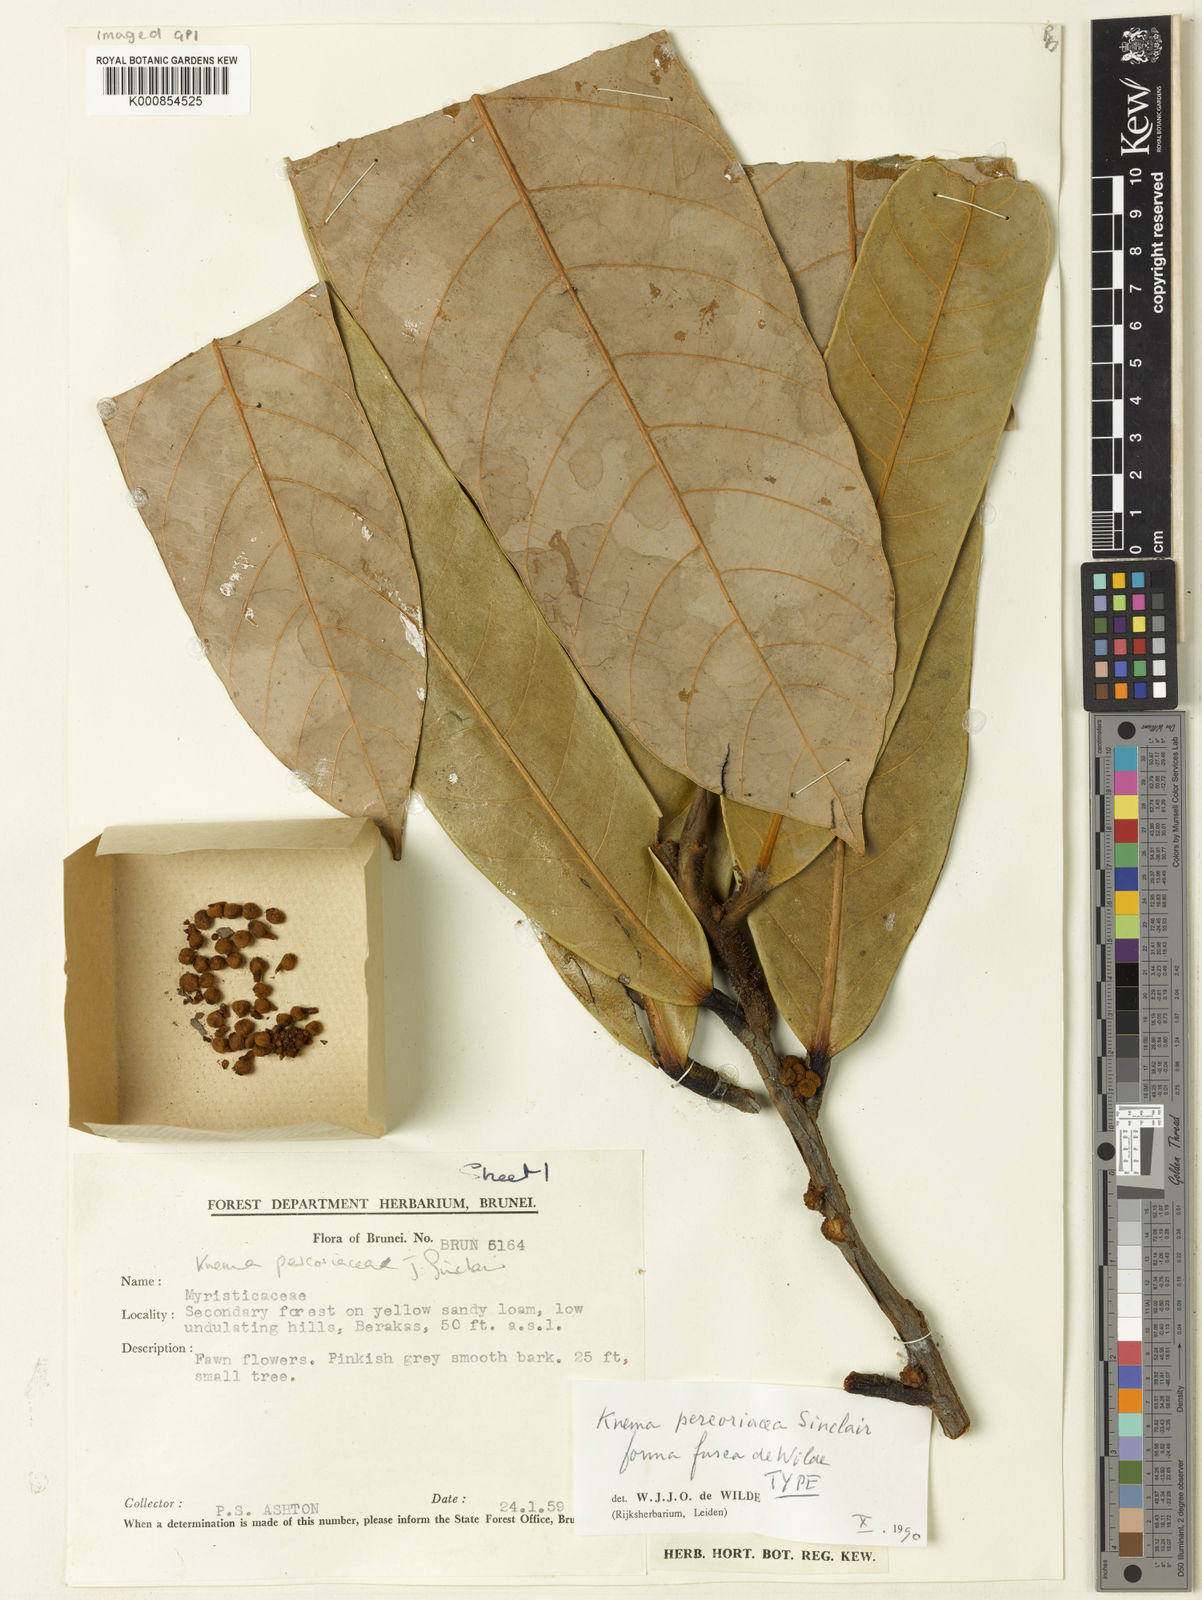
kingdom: Plantae
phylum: Tracheophyta
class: Magnoliopsida
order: Magnoliales
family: Myristicaceae
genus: Knema
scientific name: Knema percoriacea
